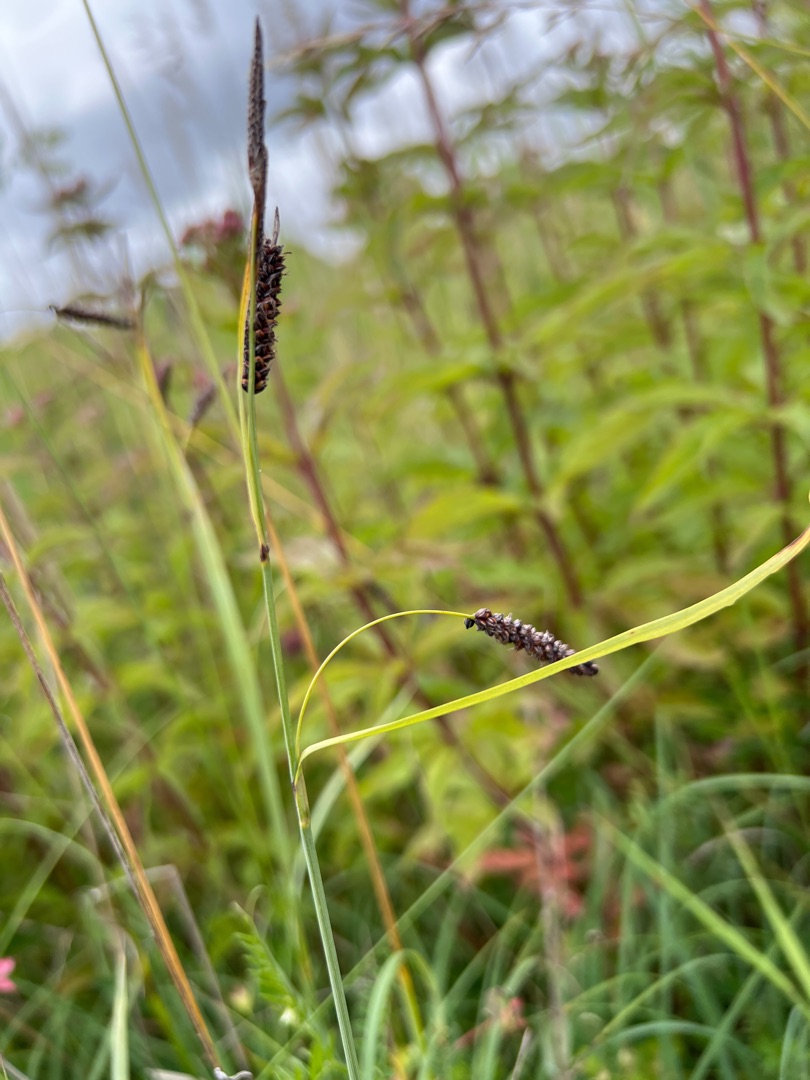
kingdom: Plantae
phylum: Tracheophyta
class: Liliopsida
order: Poales
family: Cyperaceae
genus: Carex
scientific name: Carex flacca
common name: Blågrøn star
